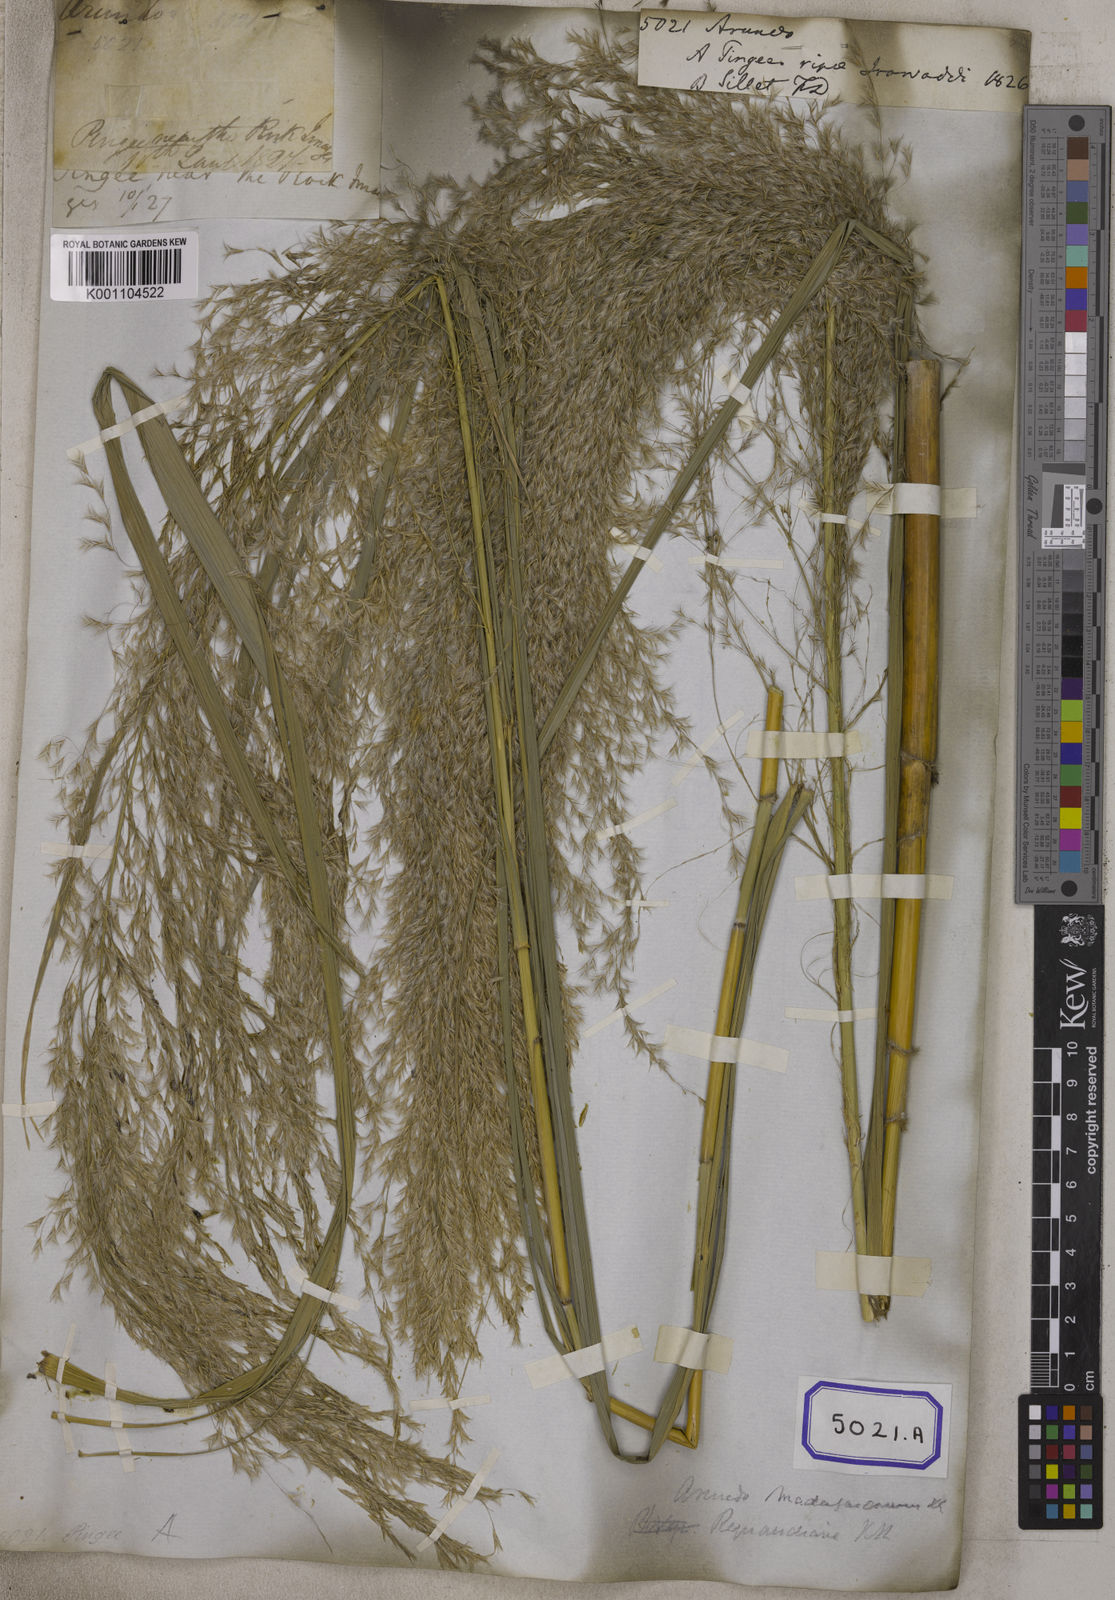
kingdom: Plantae
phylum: Tracheophyta
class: Liliopsida
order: Poales
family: Poaceae
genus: Arundo
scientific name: Arundo
